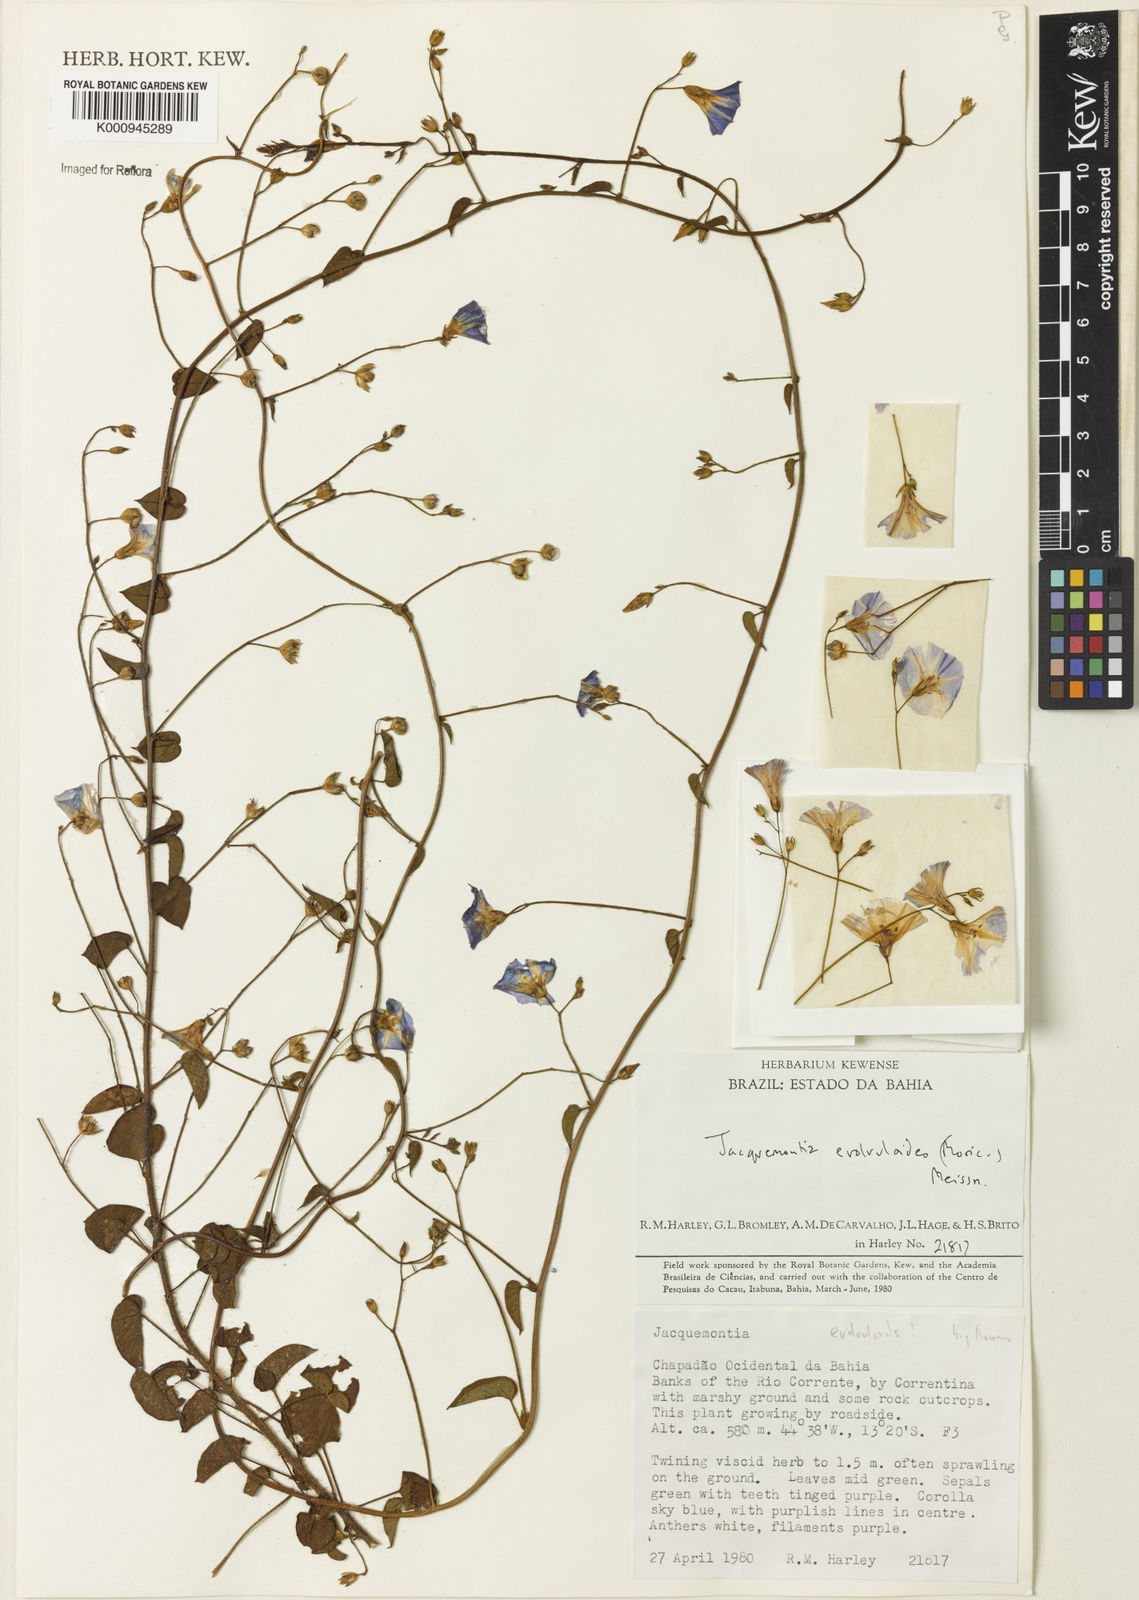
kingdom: Plantae
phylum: Tracheophyta
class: Magnoliopsida
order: Solanales
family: Convolvulaceae
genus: Jacquemontia
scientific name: Jacquemontia evolvuloides
